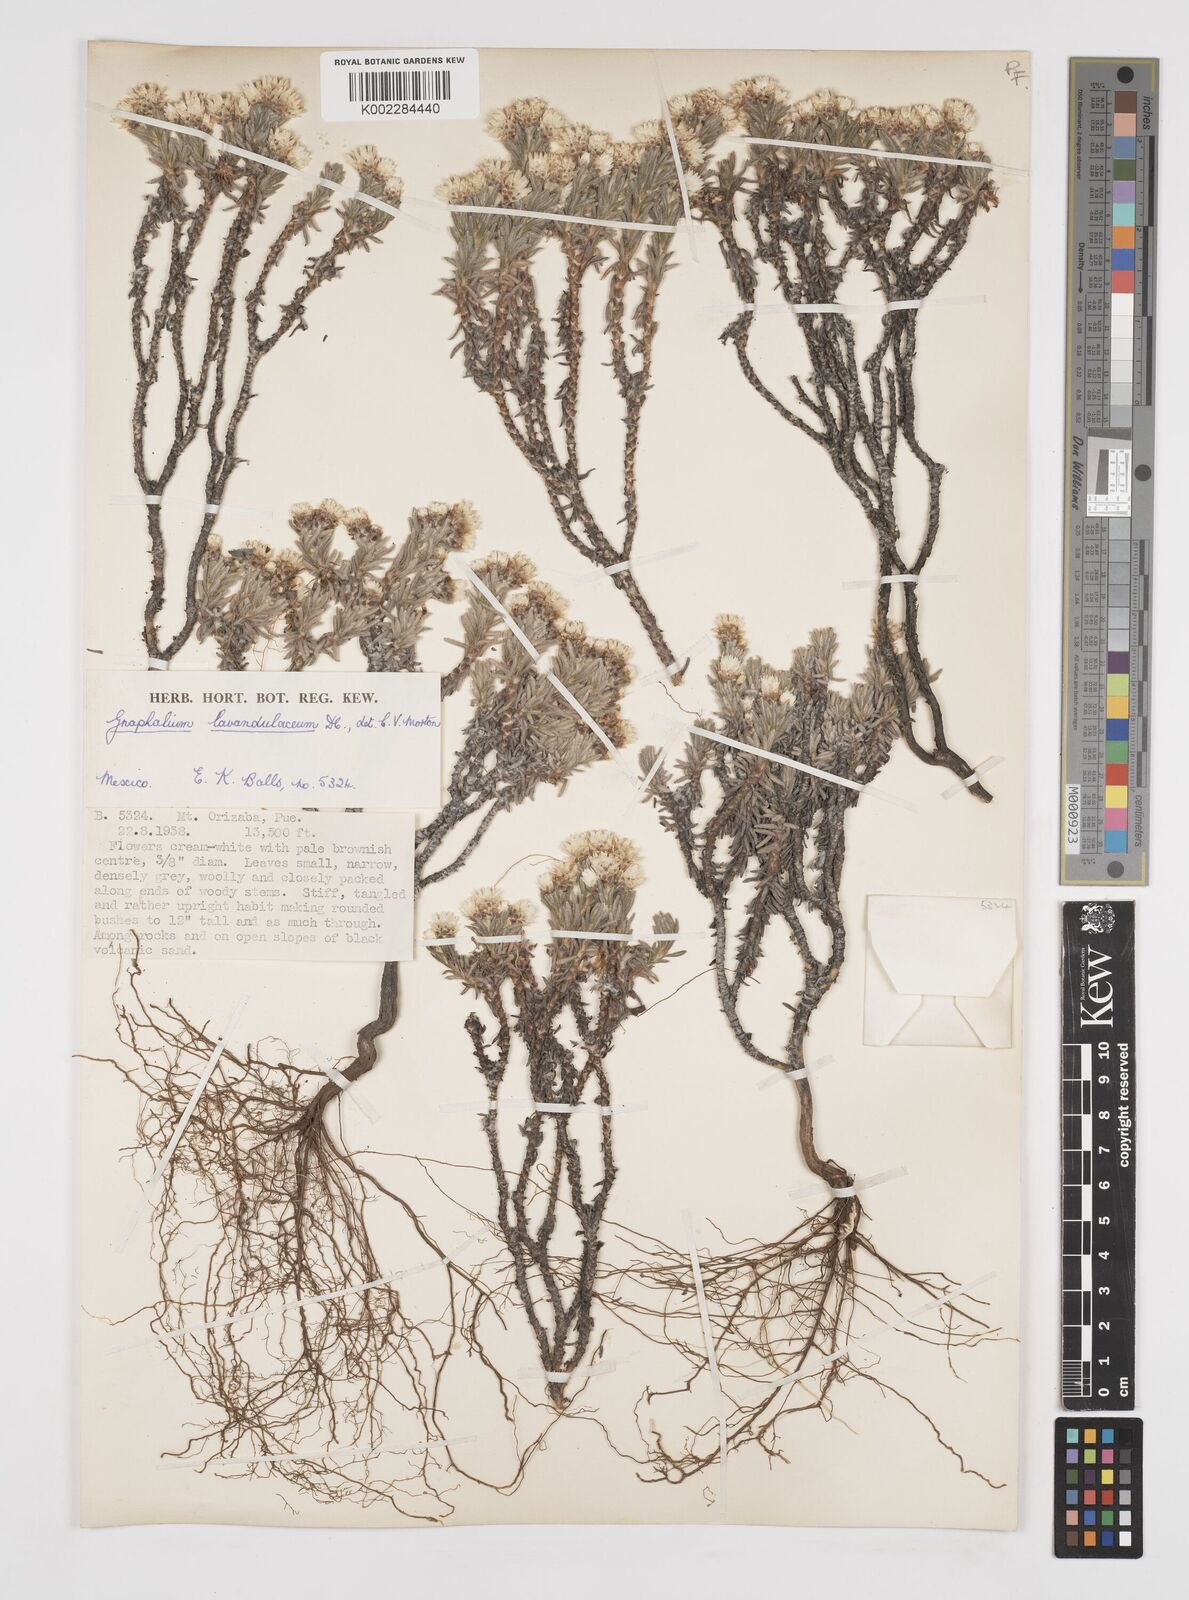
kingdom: Plantae
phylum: Tracheophyta
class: Magnoliopsida
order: Asterales
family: Asteraceae
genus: Gnaphaliothamnus
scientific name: Gnaphaliothamnus lavandulifolius
